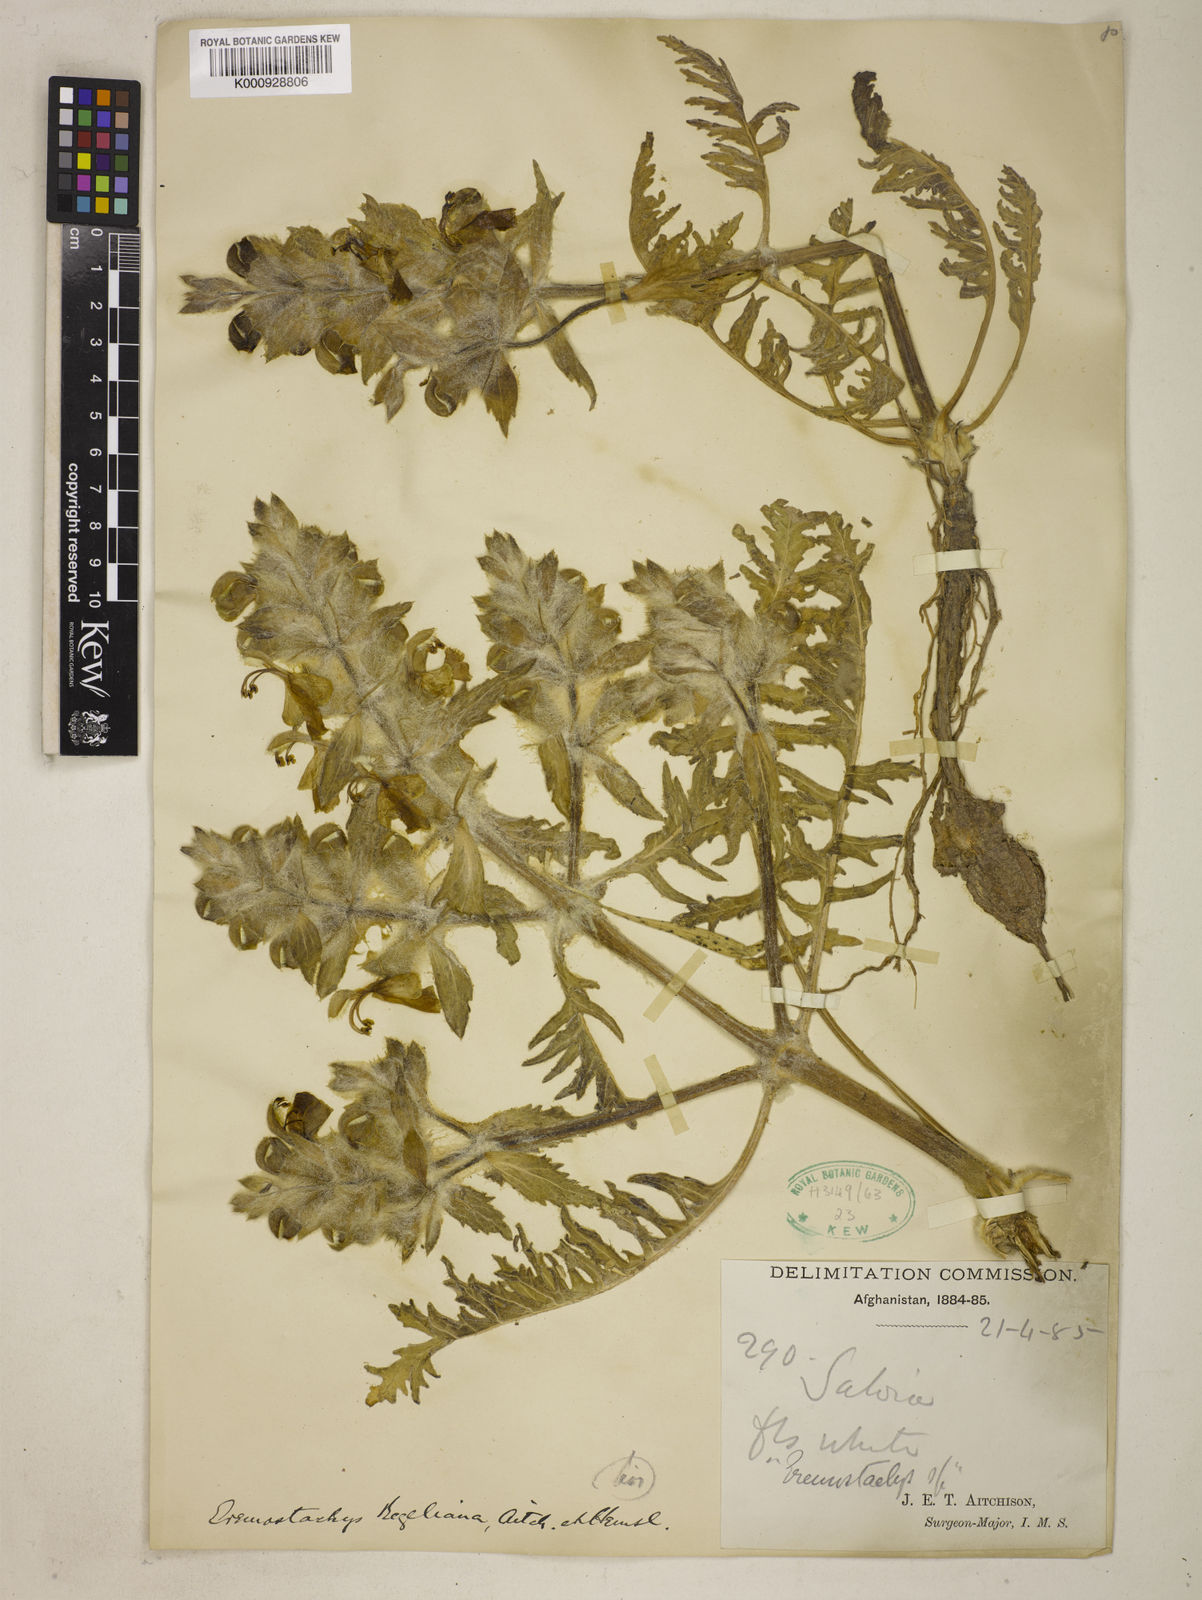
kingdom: Plantae
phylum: Tracheophyta
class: Magnoliopsida
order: Lamiales
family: Lamiaceae
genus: Phlomoides
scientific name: Phlomoides regeliana
